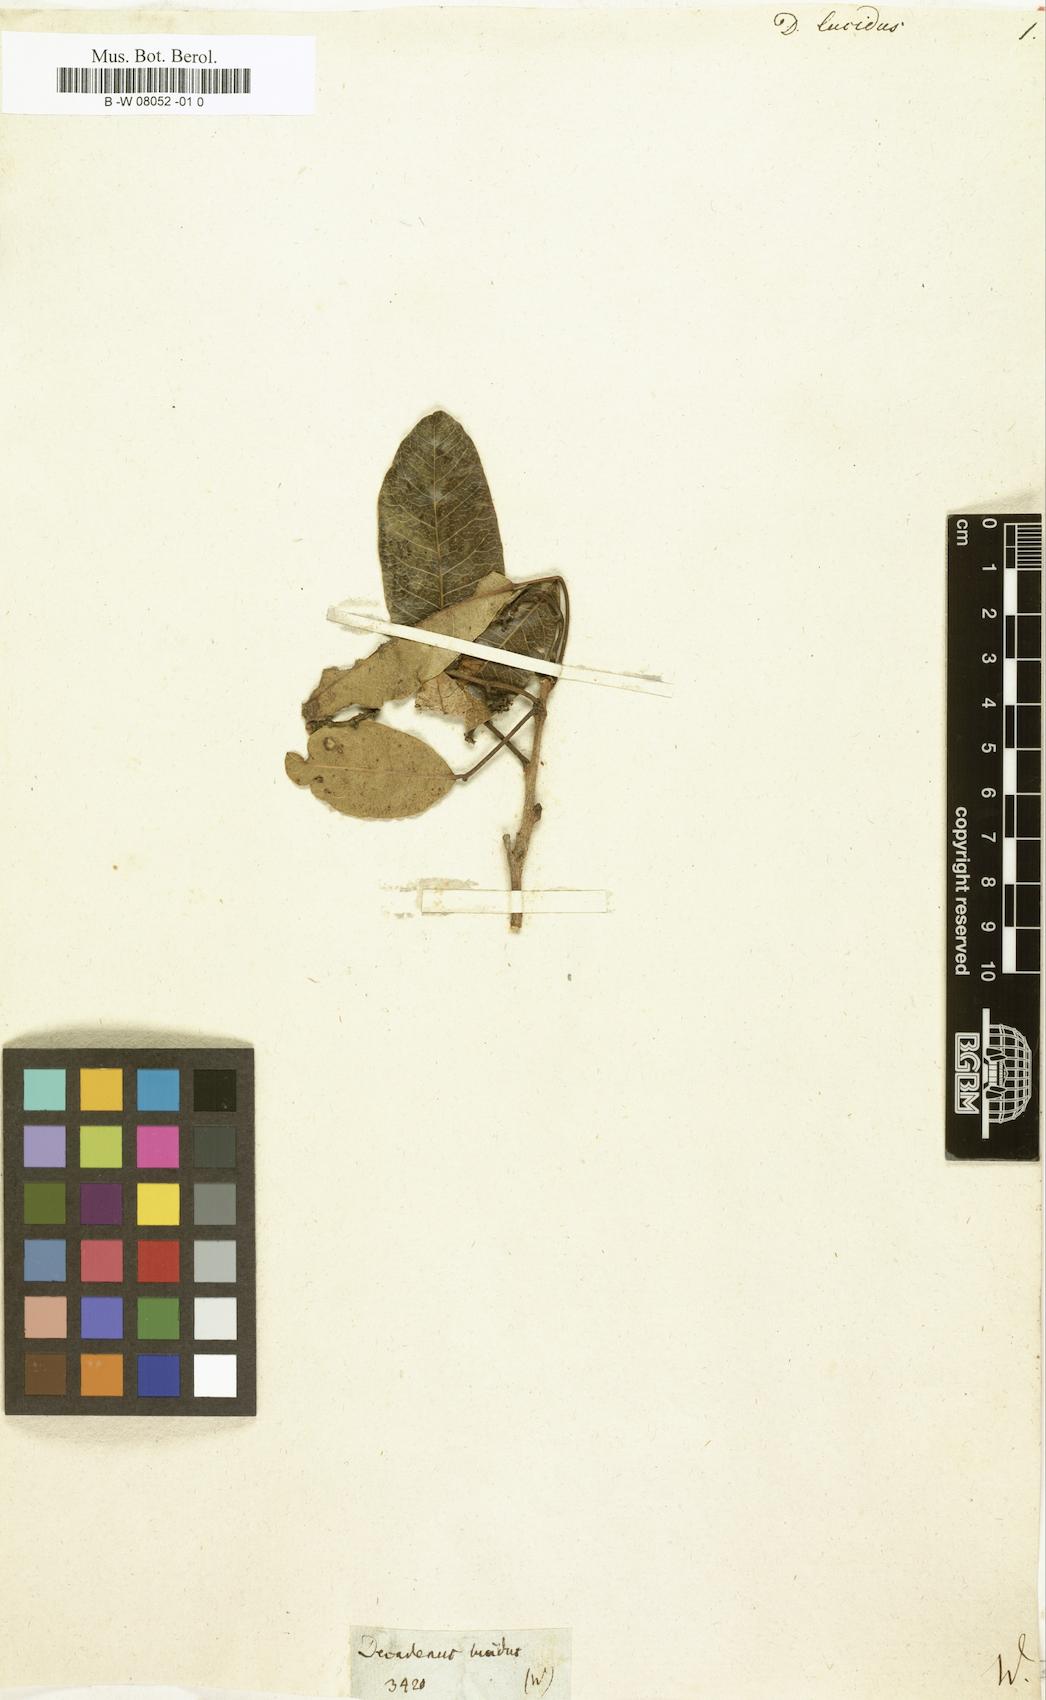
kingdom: Plantae
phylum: Tracheophyta
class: Magnoliopsida
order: Sapindales
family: Anacardiaceae
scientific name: Anacardiaceae
